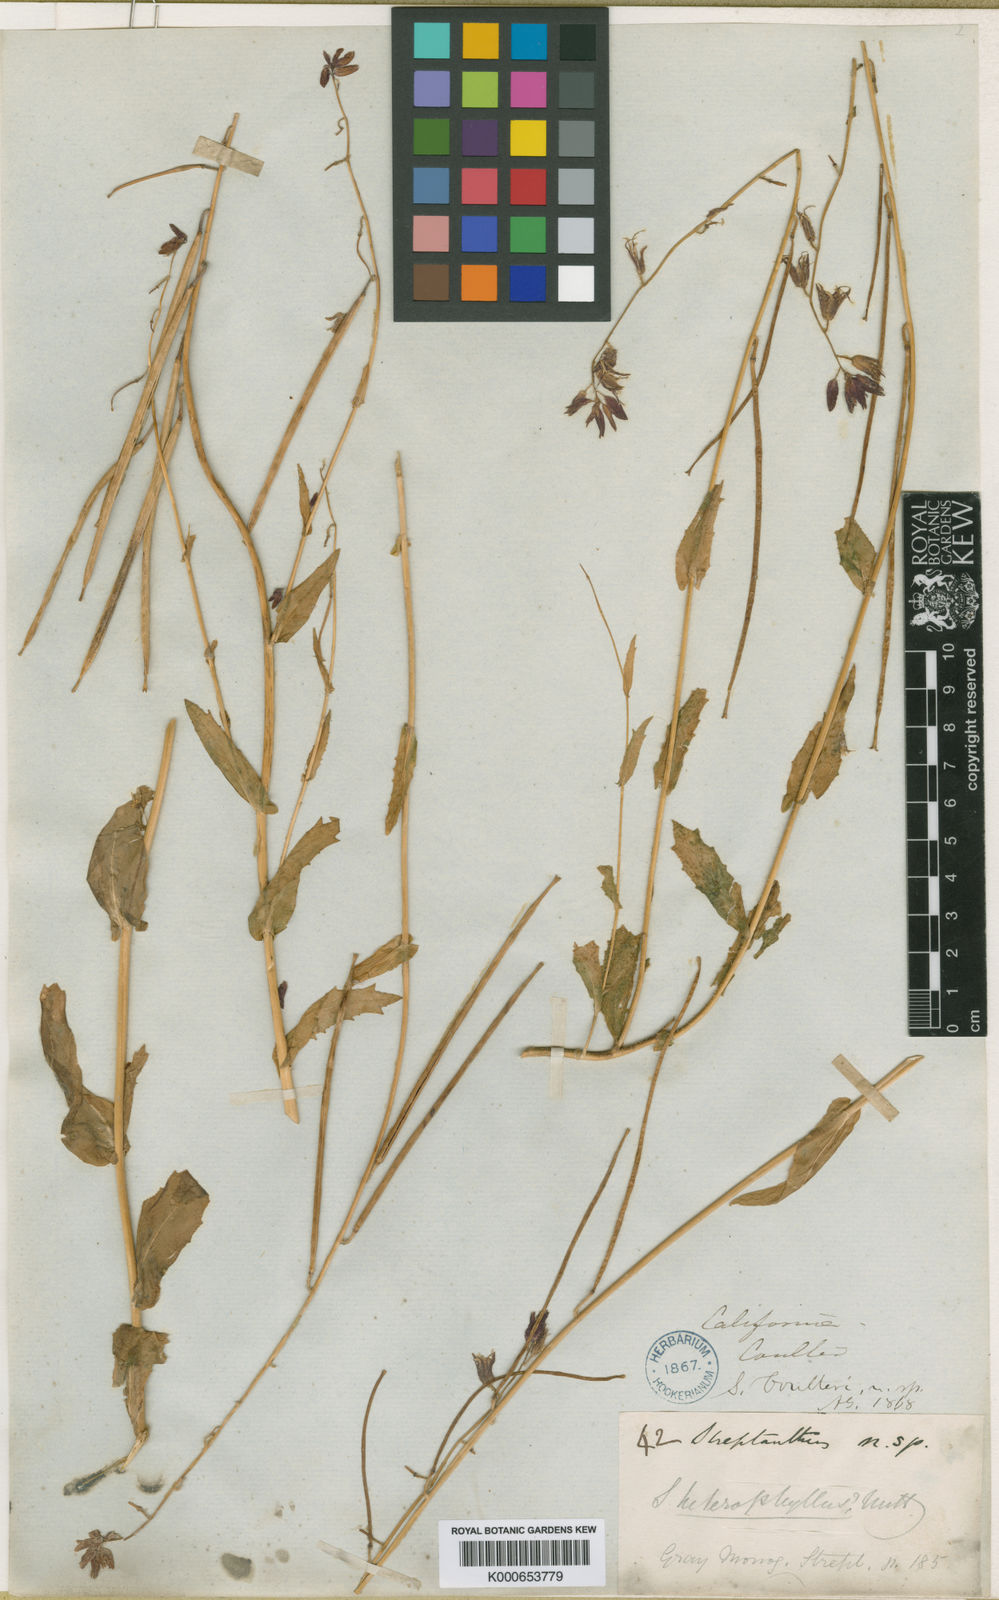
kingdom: Plantae
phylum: Tracheophyta
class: Magnoliopsida
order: Brassicales
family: Brassicaceae
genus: Streptanthus
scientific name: Streptanthus heterophyllus
